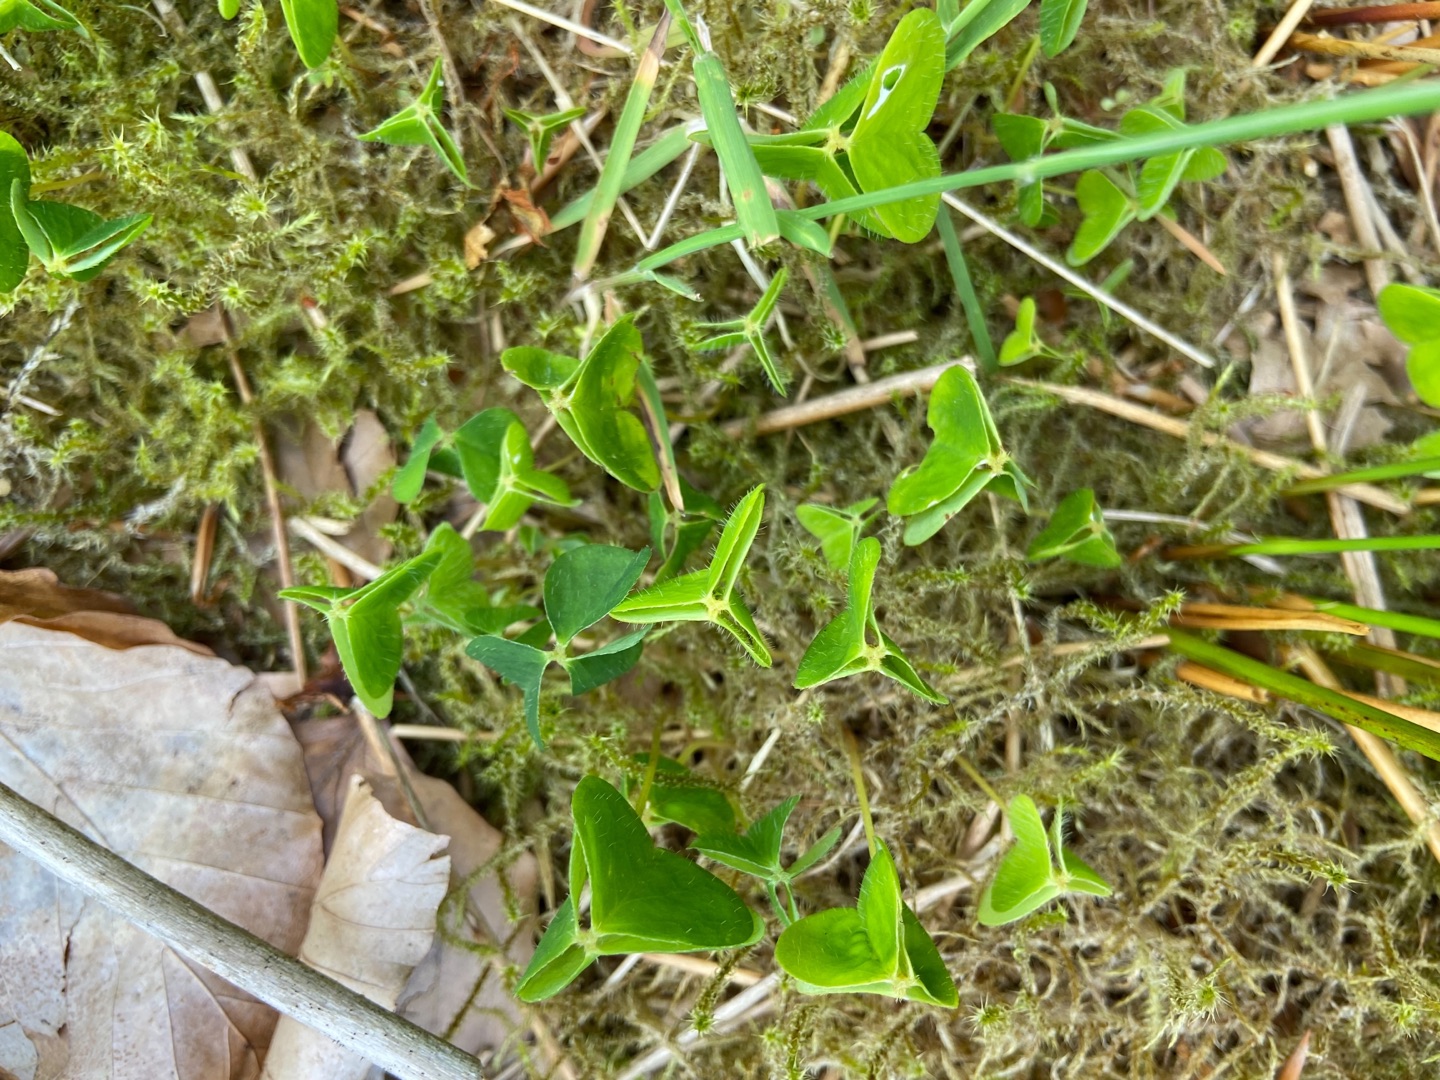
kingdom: Plantae
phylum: Tracheophyta
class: Magnoliopsida
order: Oxalidales
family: Oxalidaceae
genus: Oxalis
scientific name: Oxalis acetosella
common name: Skovsyre
